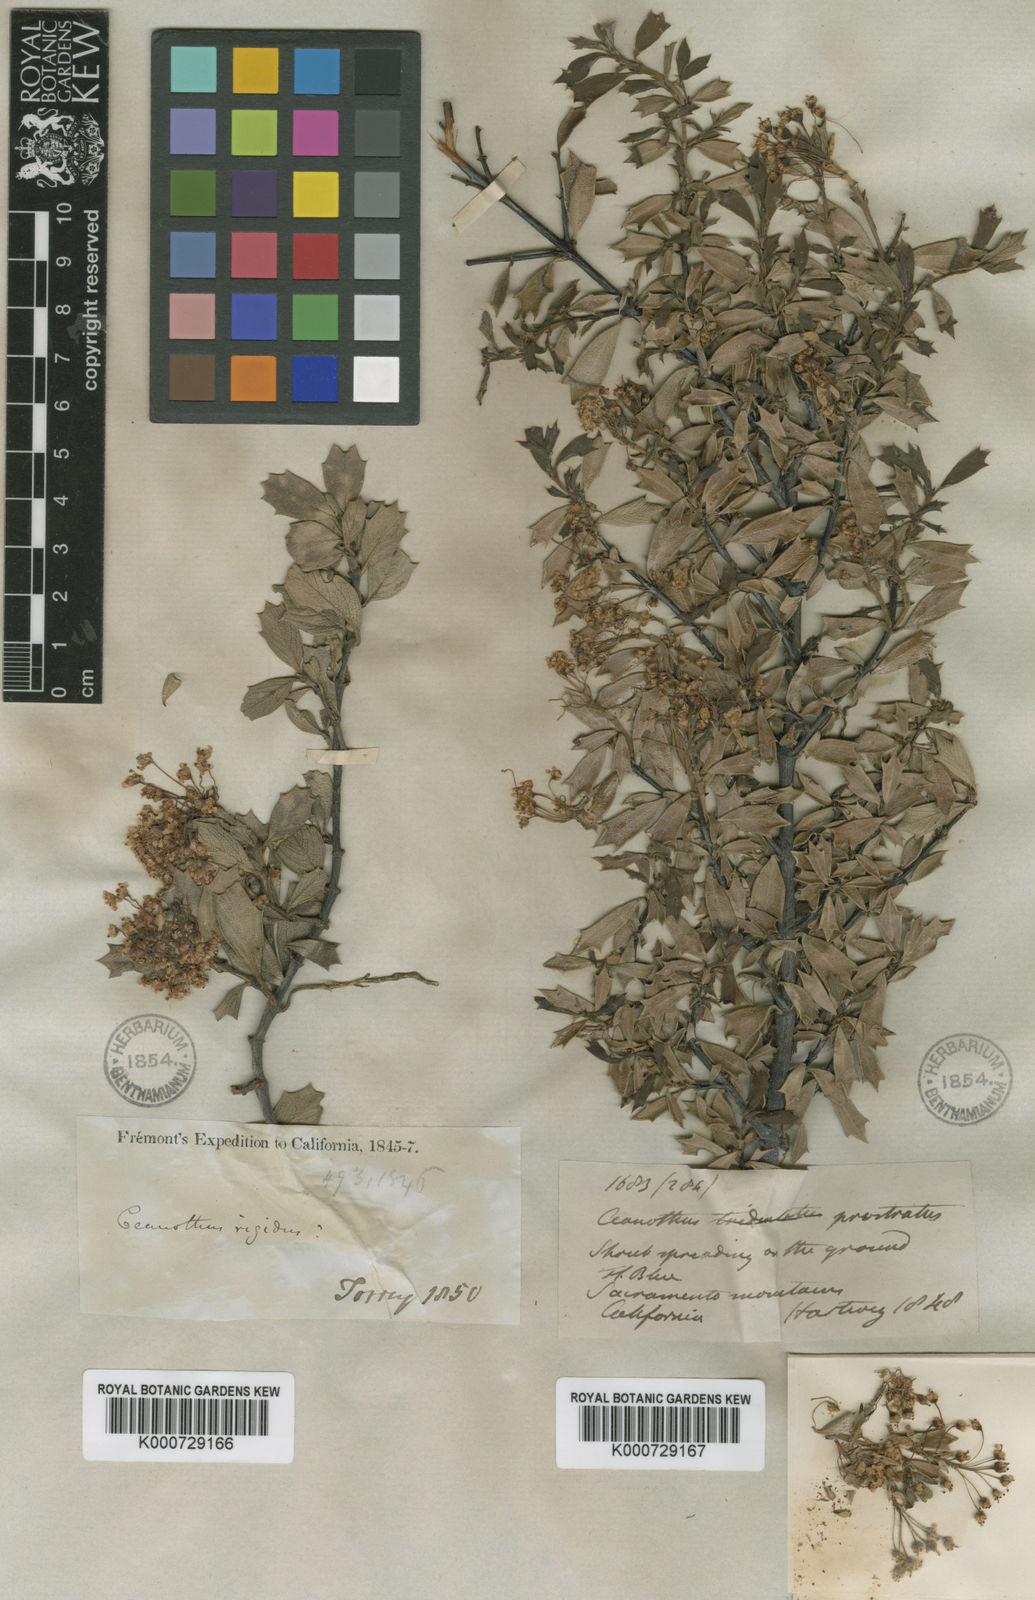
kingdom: Plantae
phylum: Tracheophyta
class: Magnoliopsida
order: Rosales
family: Rhamnaceae
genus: Ceanothus
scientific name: Ceanothus prostratus
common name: Mahala-mat
